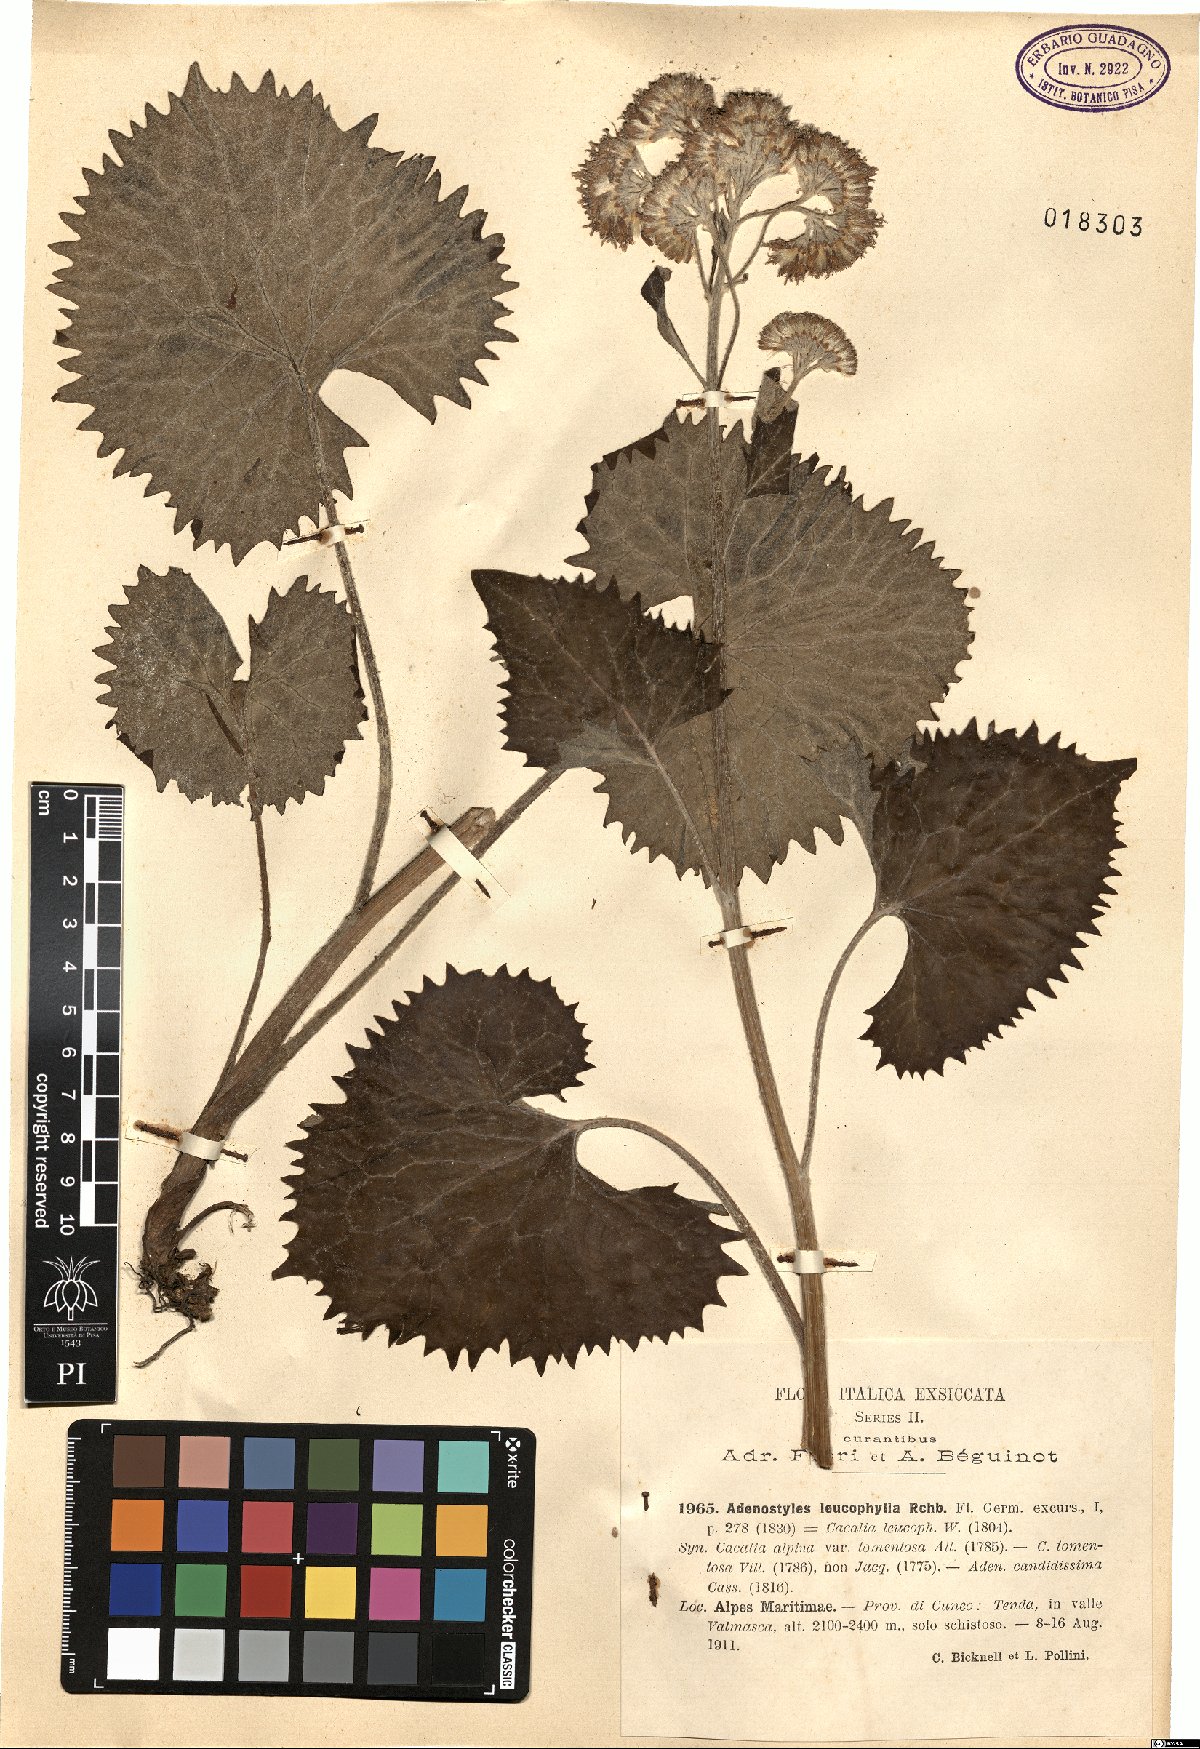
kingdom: Plantae
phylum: Tracheophyta
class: Magnoliopsida
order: Asterales
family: Asteraceae
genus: Adenostyles
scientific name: Adenostyles leucophylla
